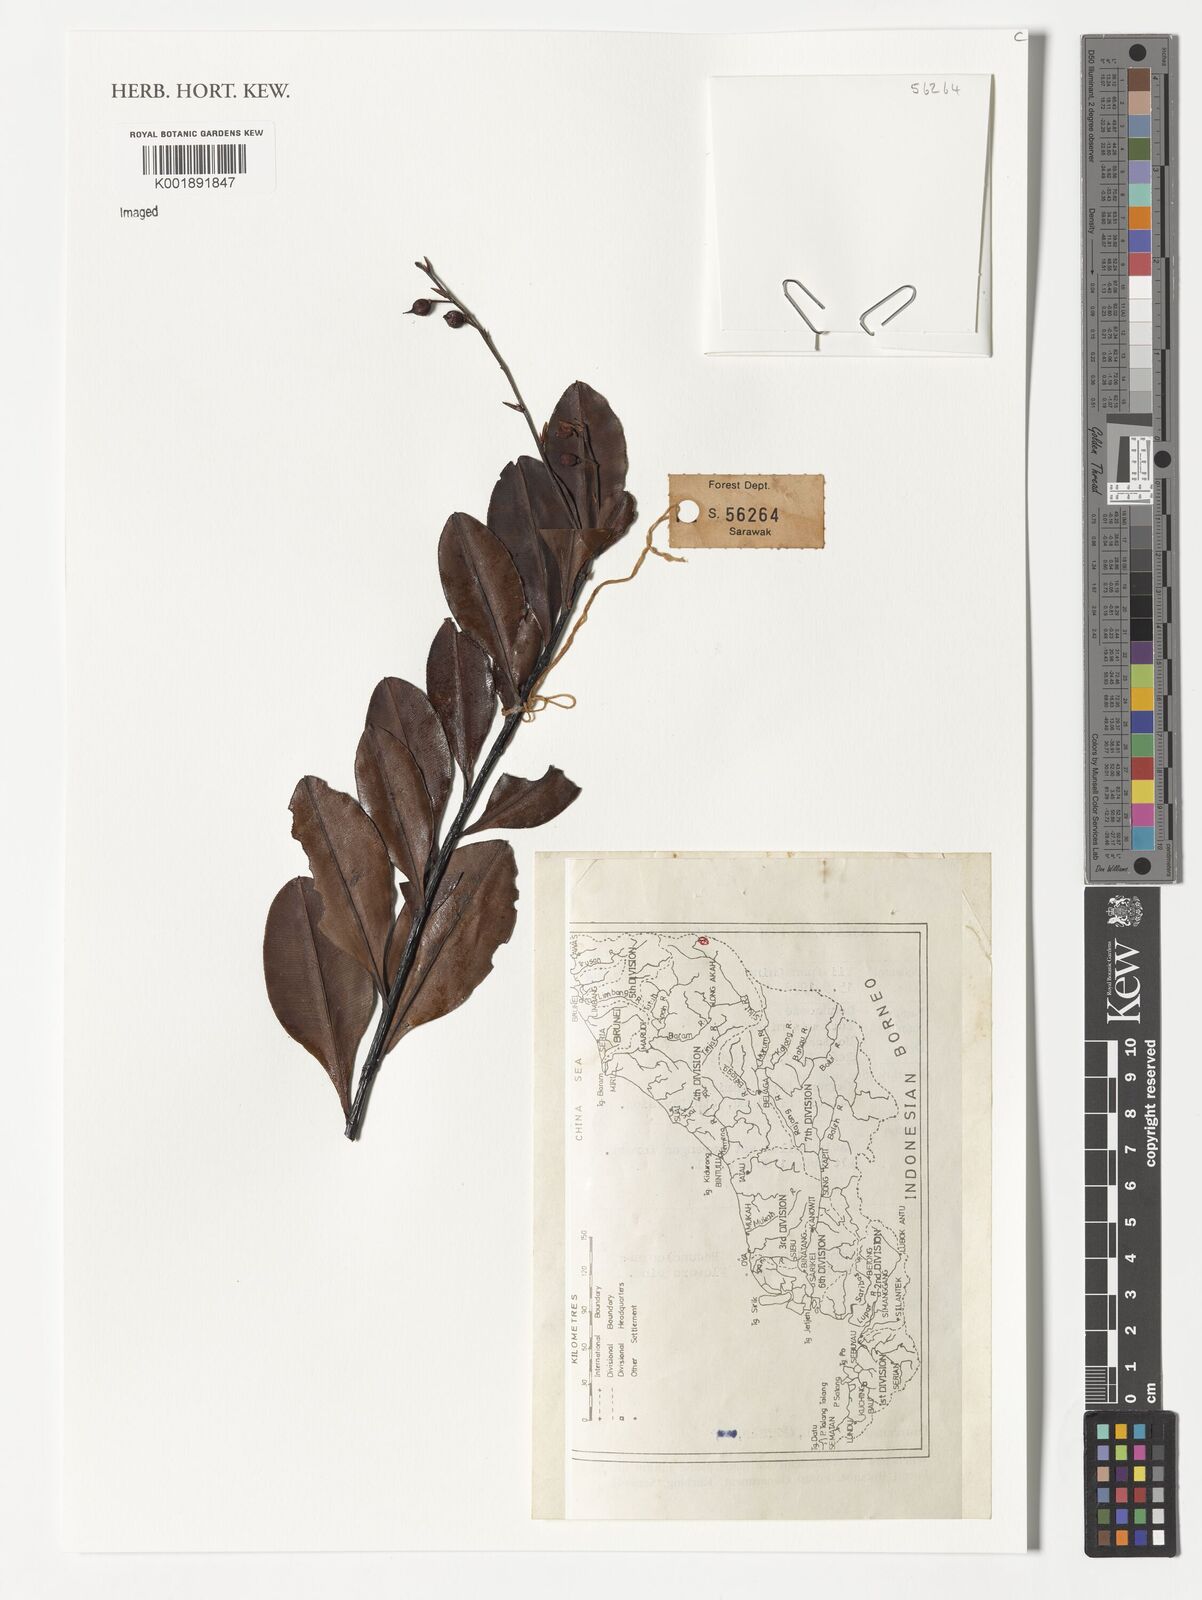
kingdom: Plantae
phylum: Tracheophyta
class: Magnoliopsida
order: Malpighiales
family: Ochnaceae
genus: Euthemis
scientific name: Euthemis minor
